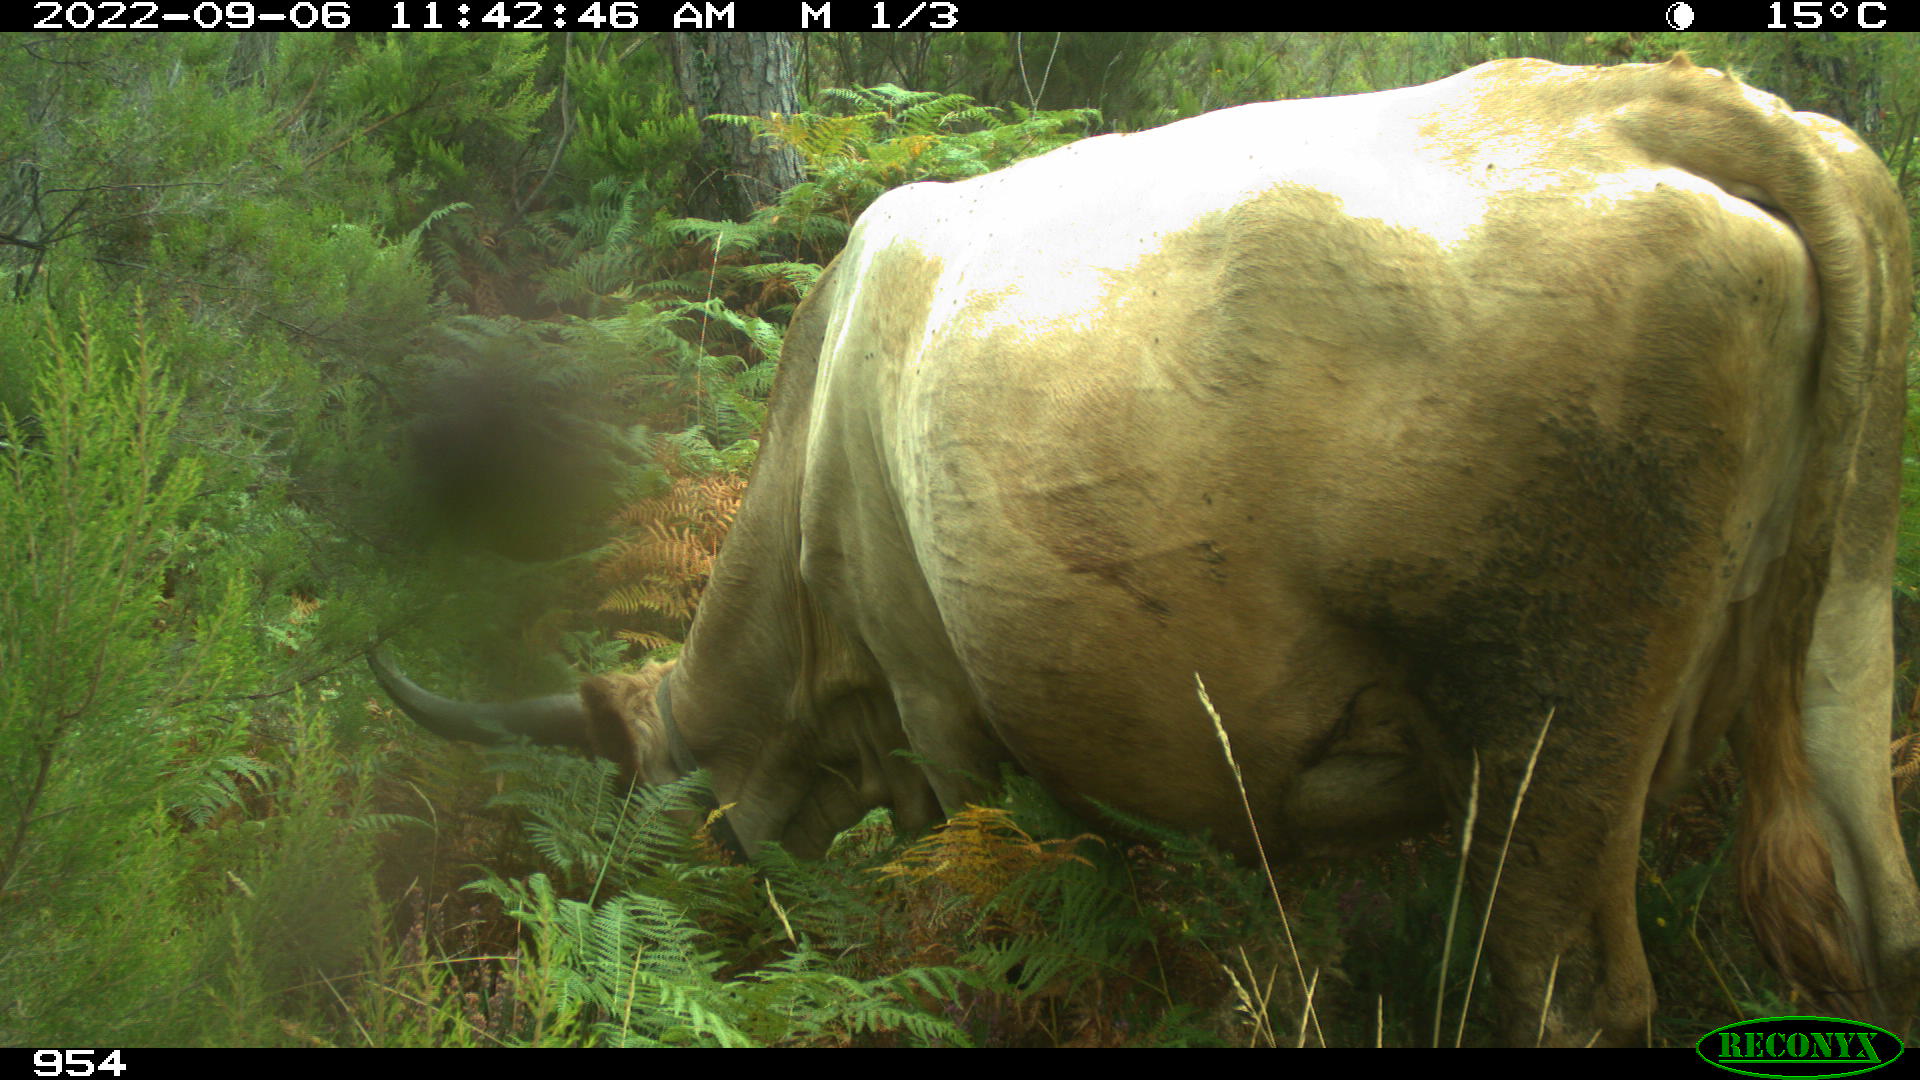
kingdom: Animalia
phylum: Chordata
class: Mammalia
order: Artiodactyla
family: Bovidae
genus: Bos
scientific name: Bos taurus
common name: Domesticated cattle
